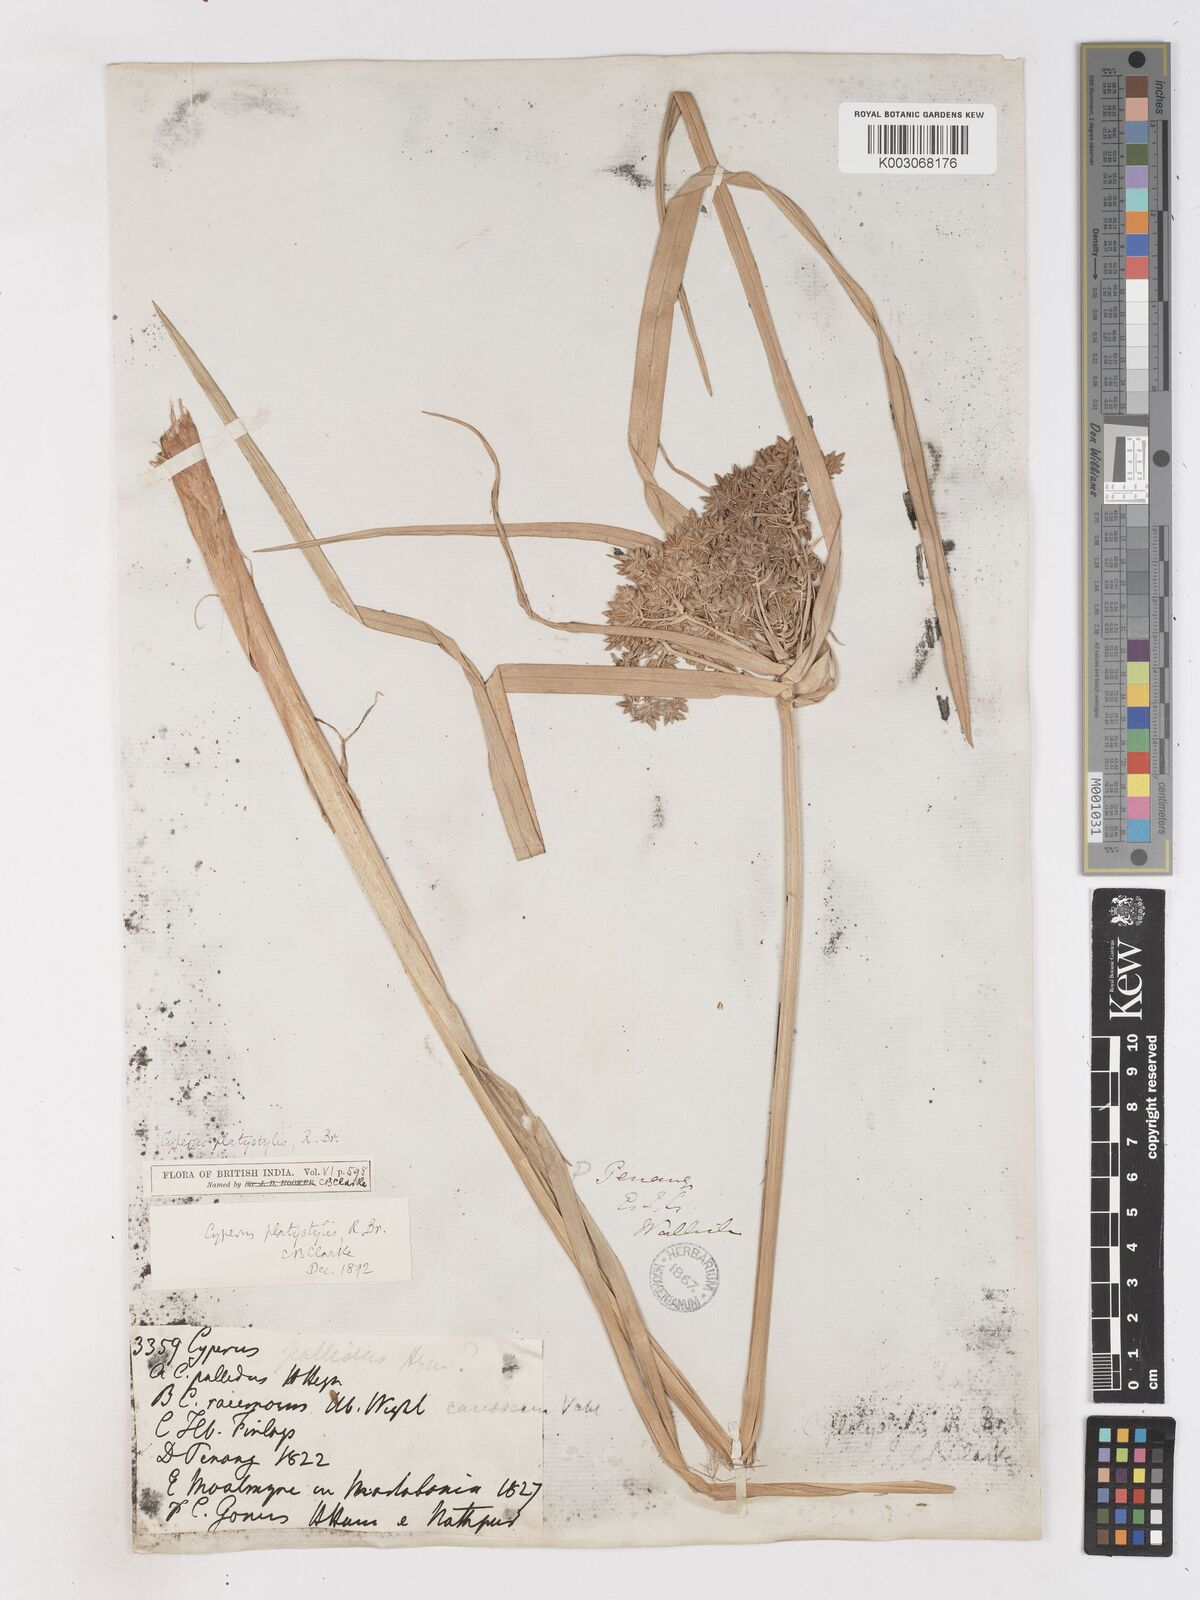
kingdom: Plantae
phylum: Tracheophyta
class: Liliopsida
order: Poales
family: Cyperaceae
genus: Cyperus
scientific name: Cyperus platystylis
